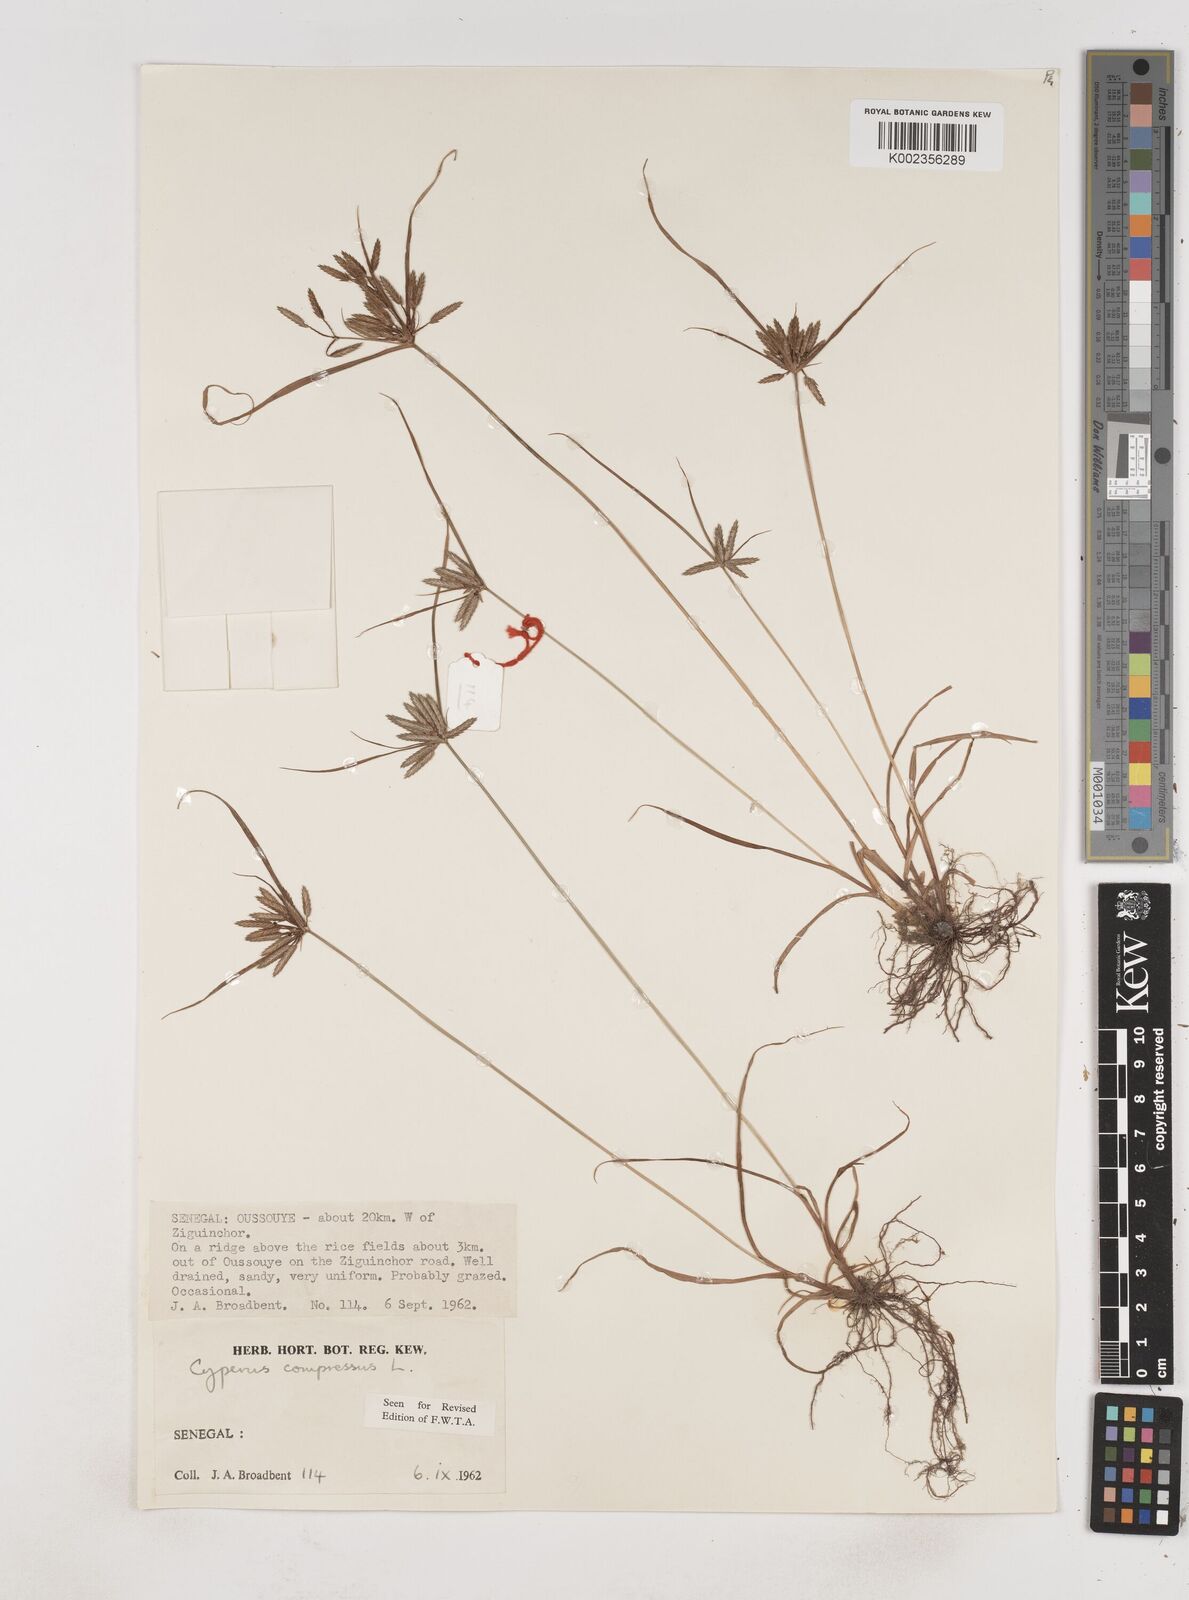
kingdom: Plantae
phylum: Tracheophyta
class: Liliopsida
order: Poales
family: Cyperaceae
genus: Cyperus
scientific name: Cyperus compressus
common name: Poorland flatsedge
